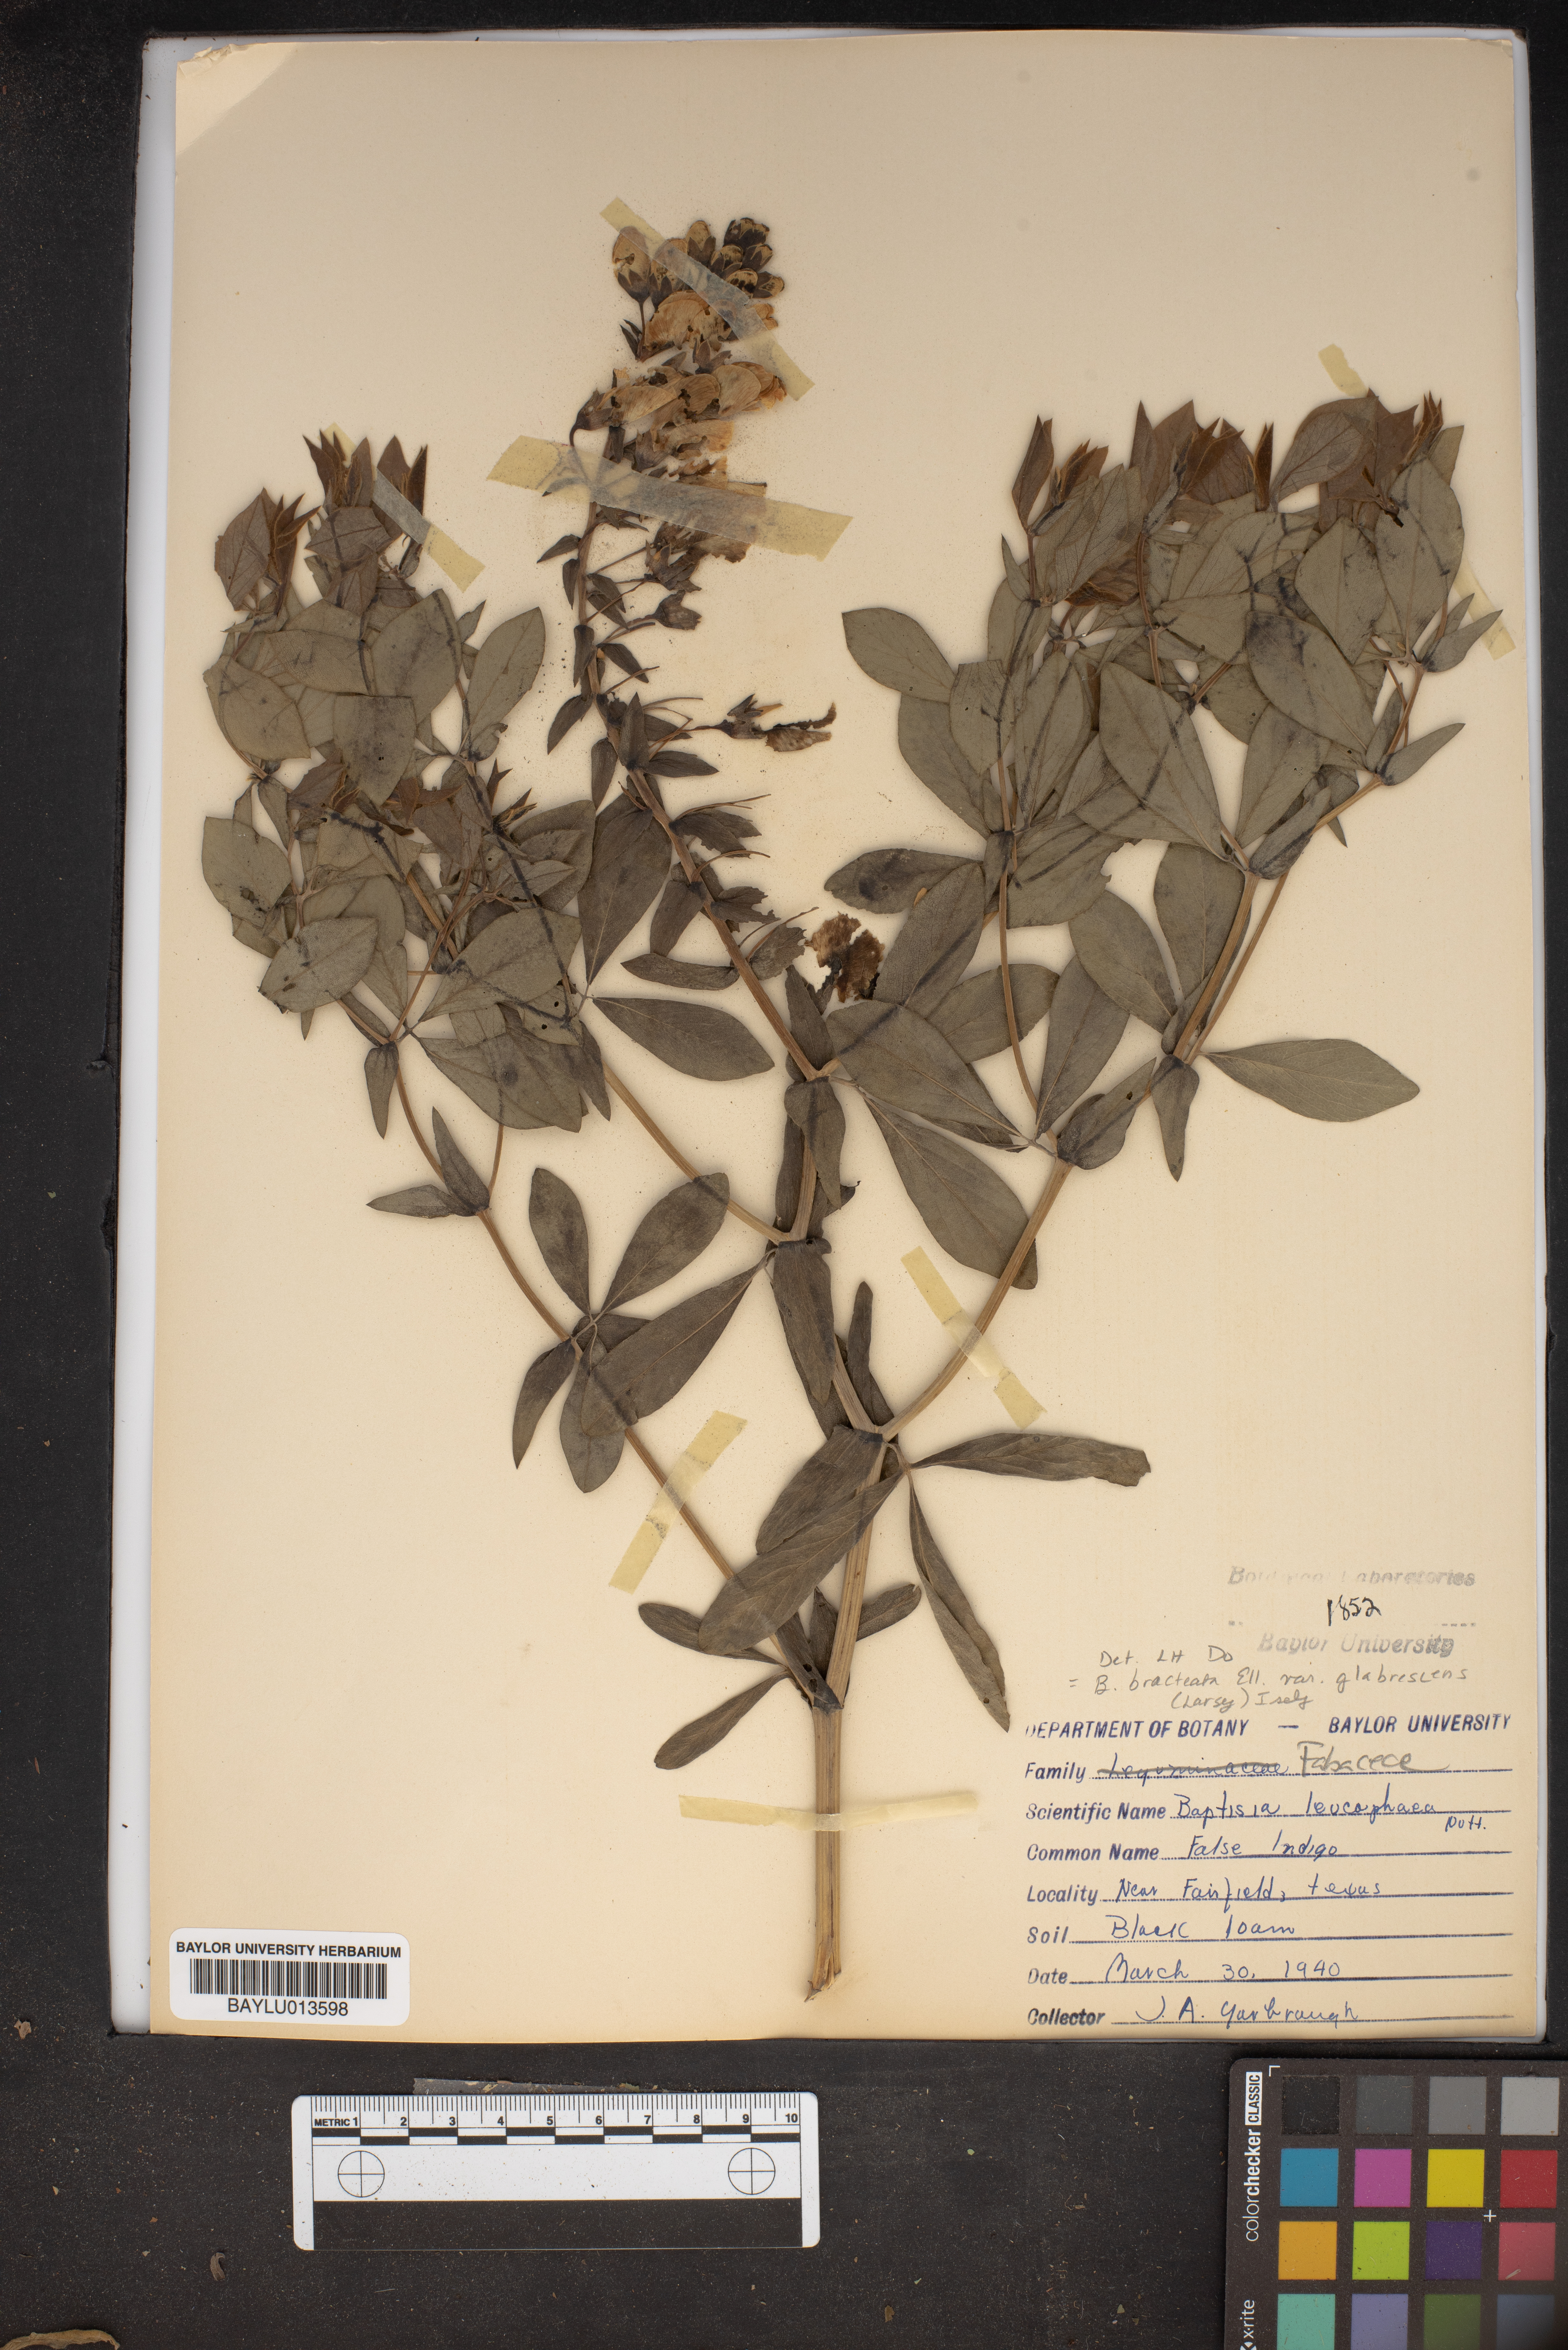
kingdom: Plantae
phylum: Tracheophyta
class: Magnoliopsida
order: Fabales
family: Fabaceae
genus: Baptisia
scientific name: Baptisia bracteata
